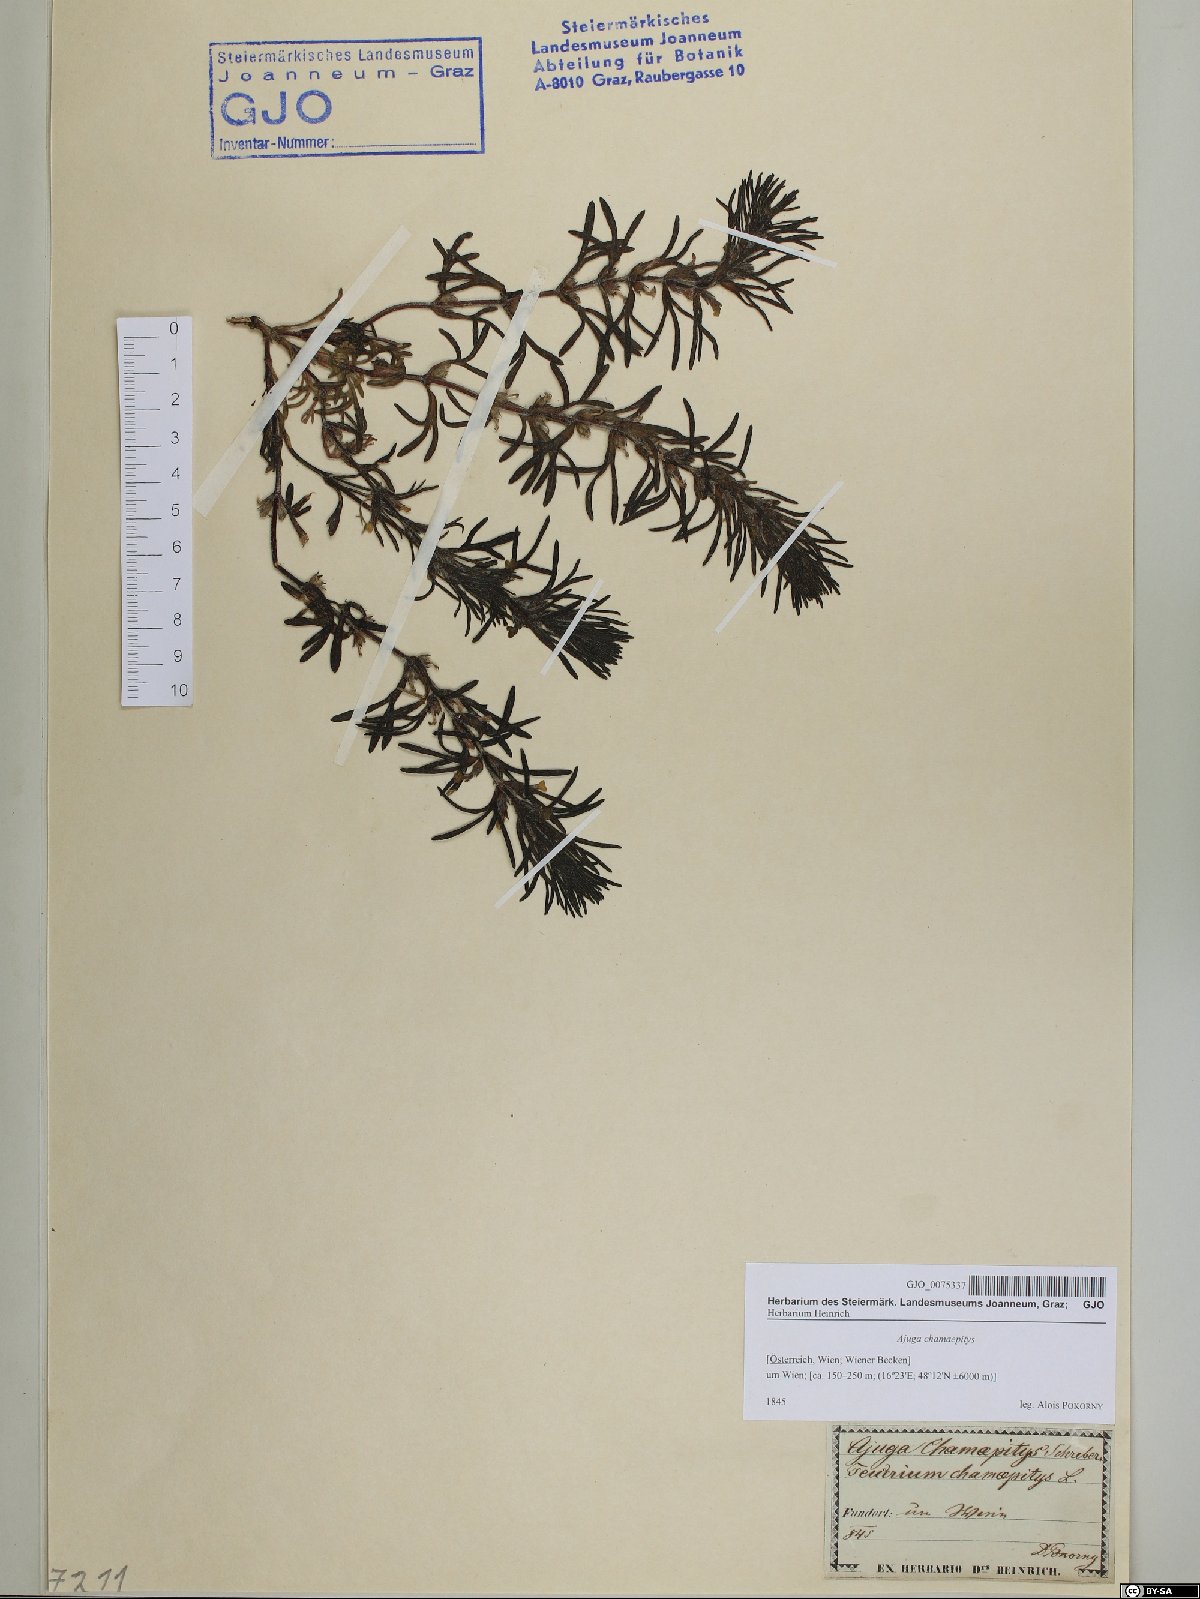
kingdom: Plantae
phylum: Tracheophyta
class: Magnoliopsida
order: Lamiales
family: Lamiaceae
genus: Ajuga
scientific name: Ajuga chamaepitys
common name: Ground-pine
